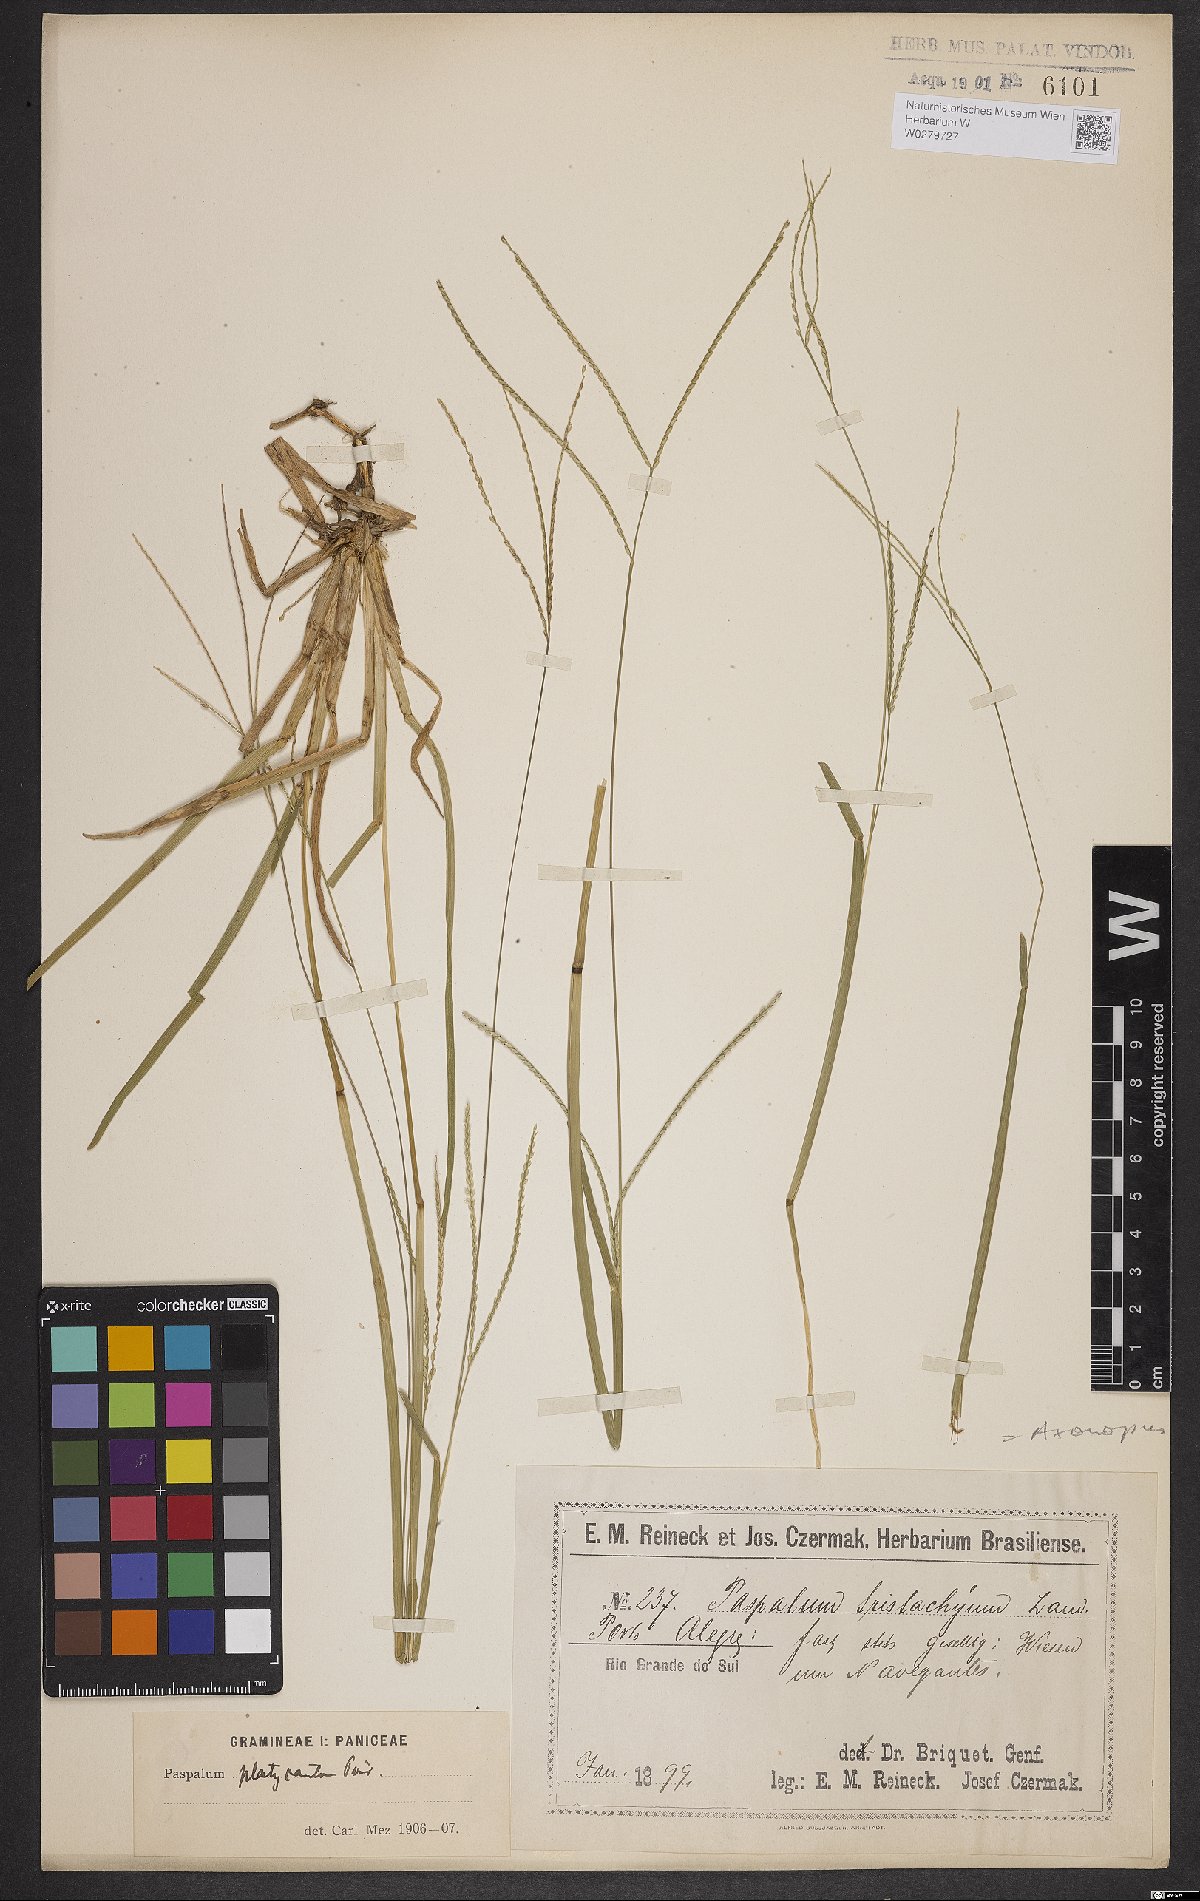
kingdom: Plantae
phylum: Tracheophyta
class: Liliopsida
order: Poales
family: Poaceae
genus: Axonopus
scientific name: Axonopus compressus
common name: American carpet grass
